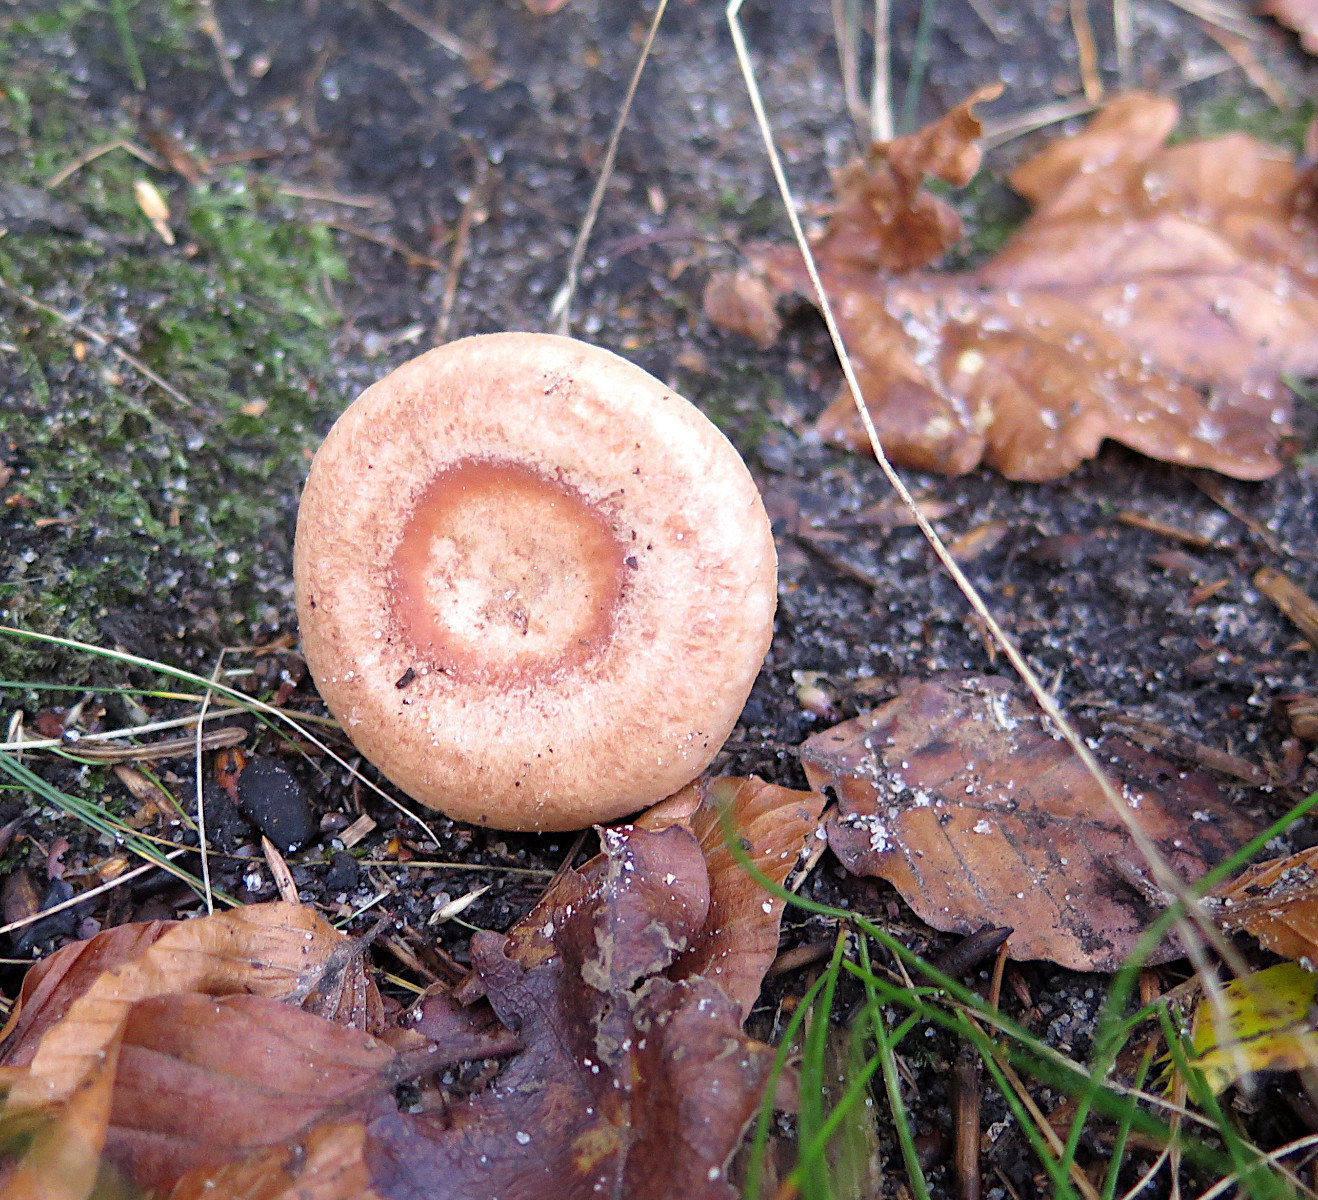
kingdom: Fungi
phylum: Basidiomycota
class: Agaricomycetes
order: Russulales
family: Russulaceae
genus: Lactarius
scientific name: Lactarius quietus
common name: ege-mælkehat
